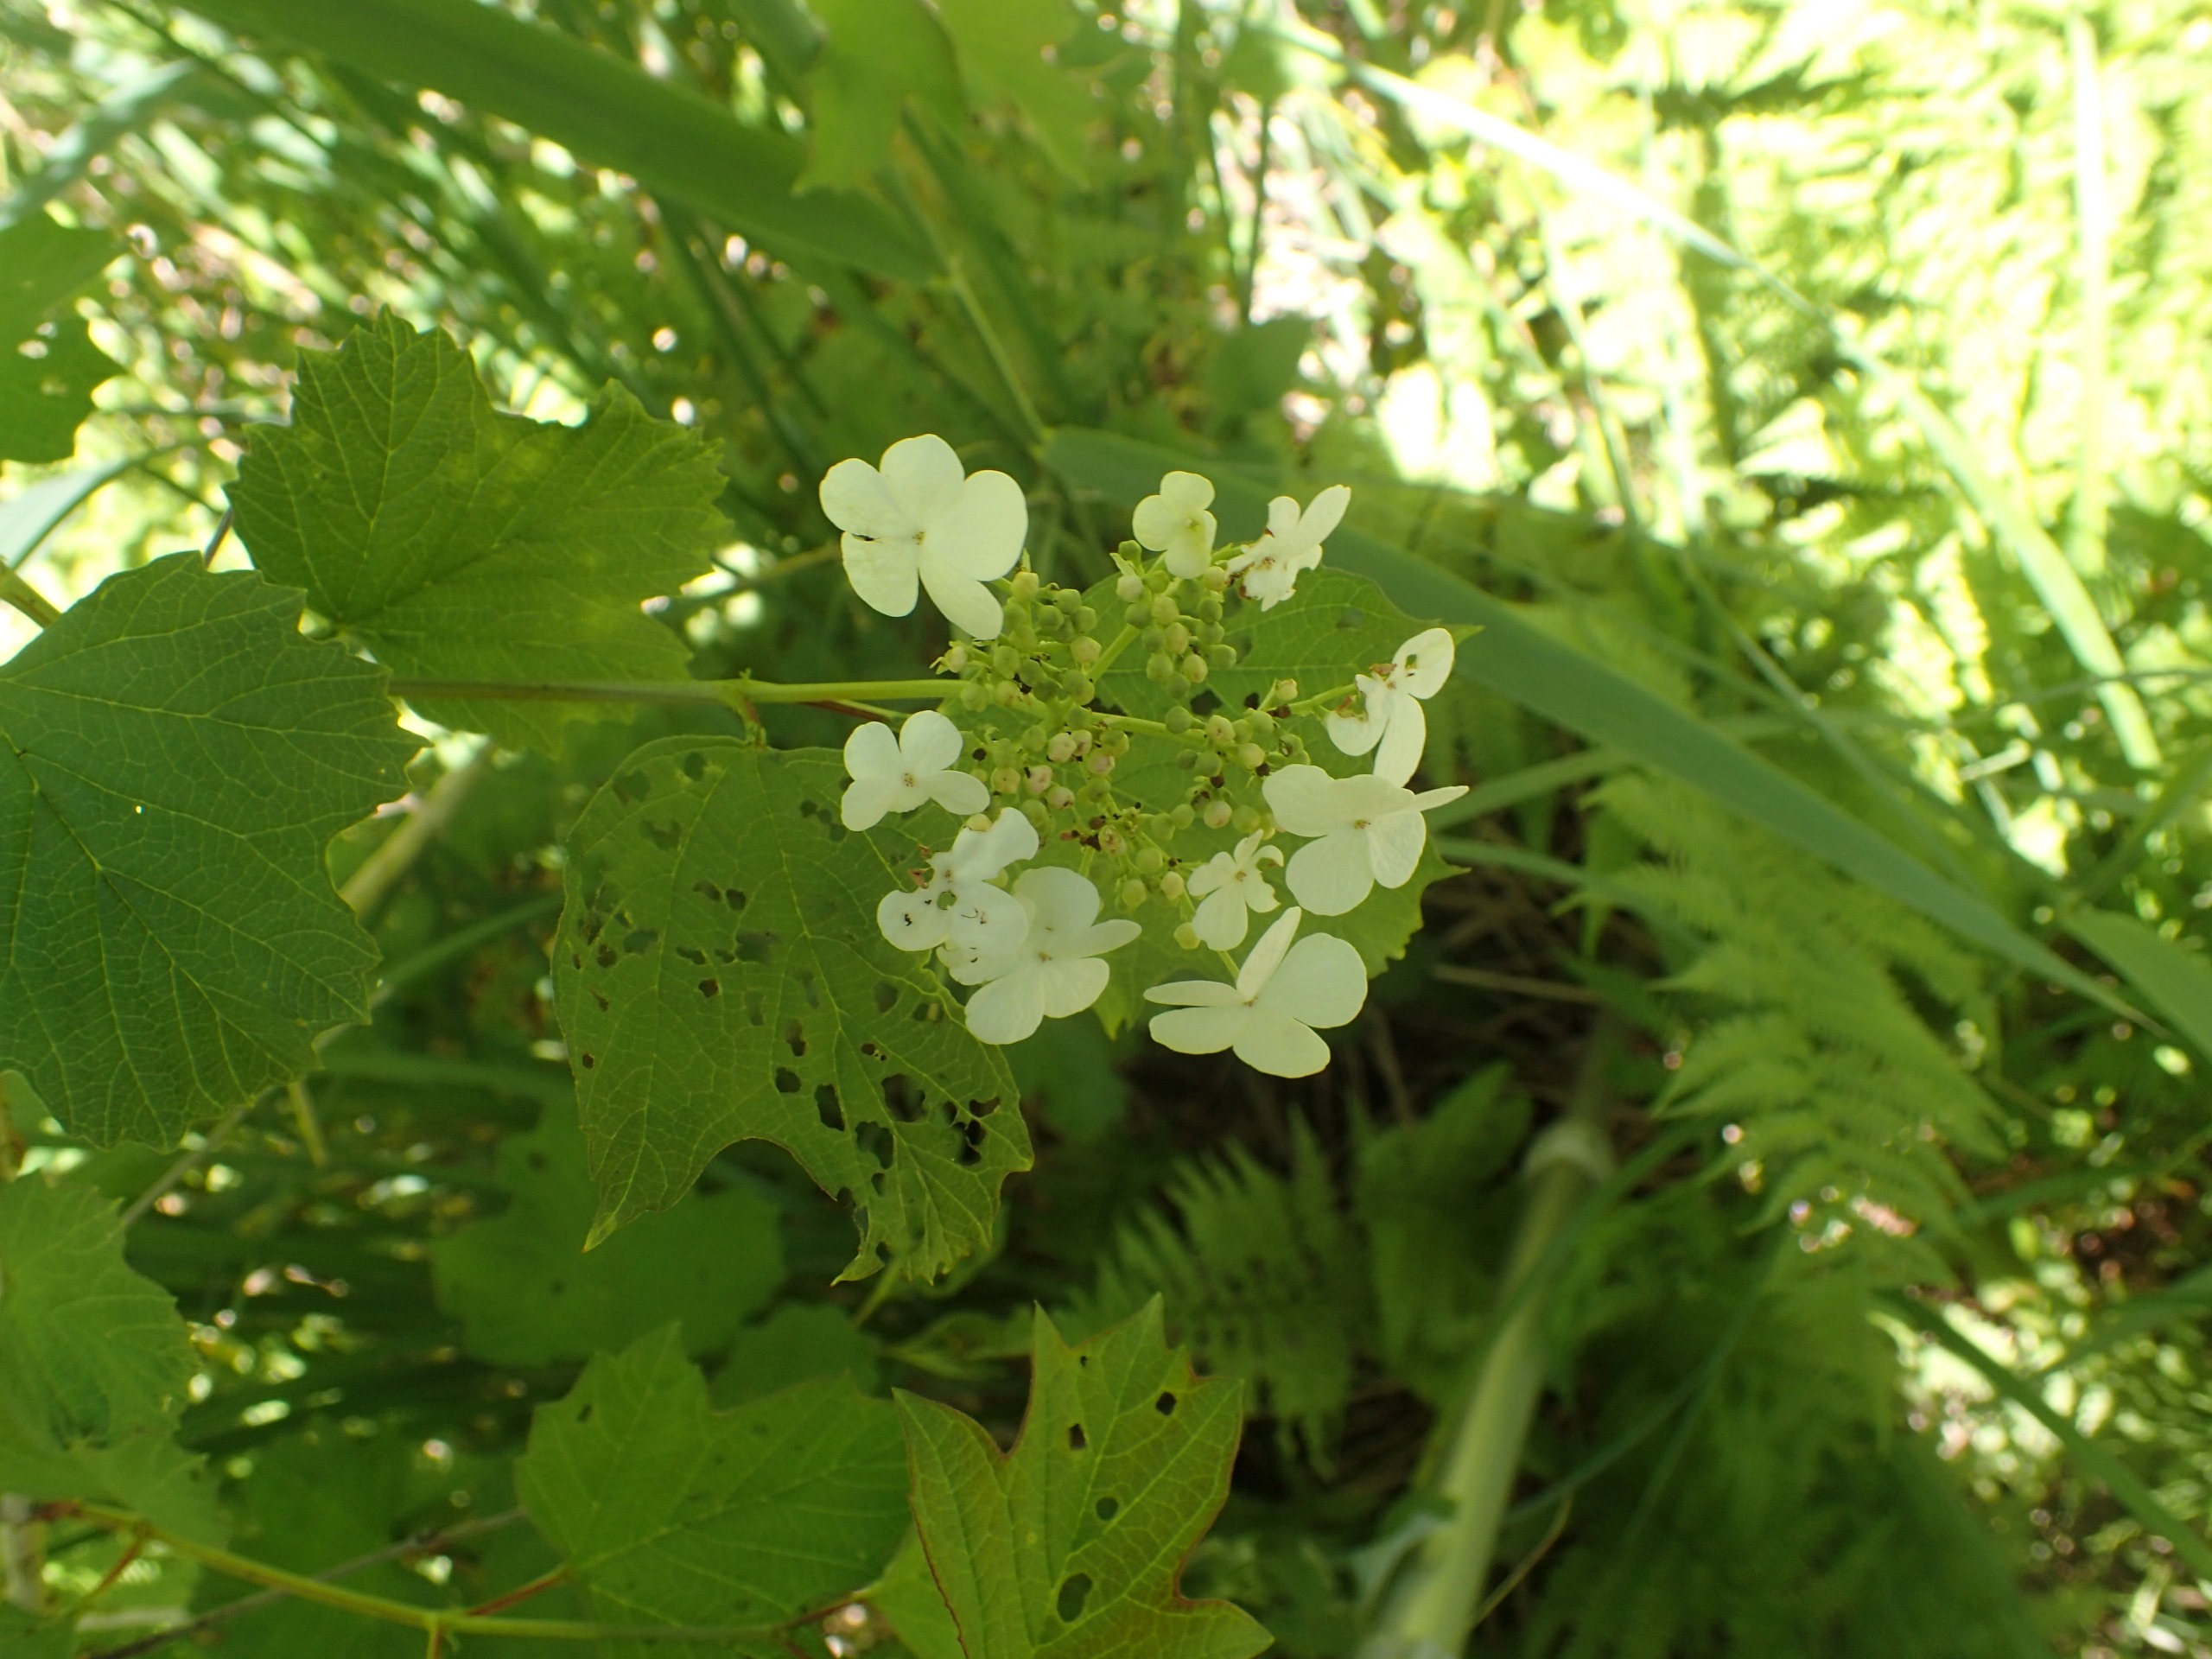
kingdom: Plantae
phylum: Tracheophyta
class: Magnoliopsida
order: Dipsacales
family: Viburnaceae
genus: Viburnum
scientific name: Viburnum opulus
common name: Kvalkved
